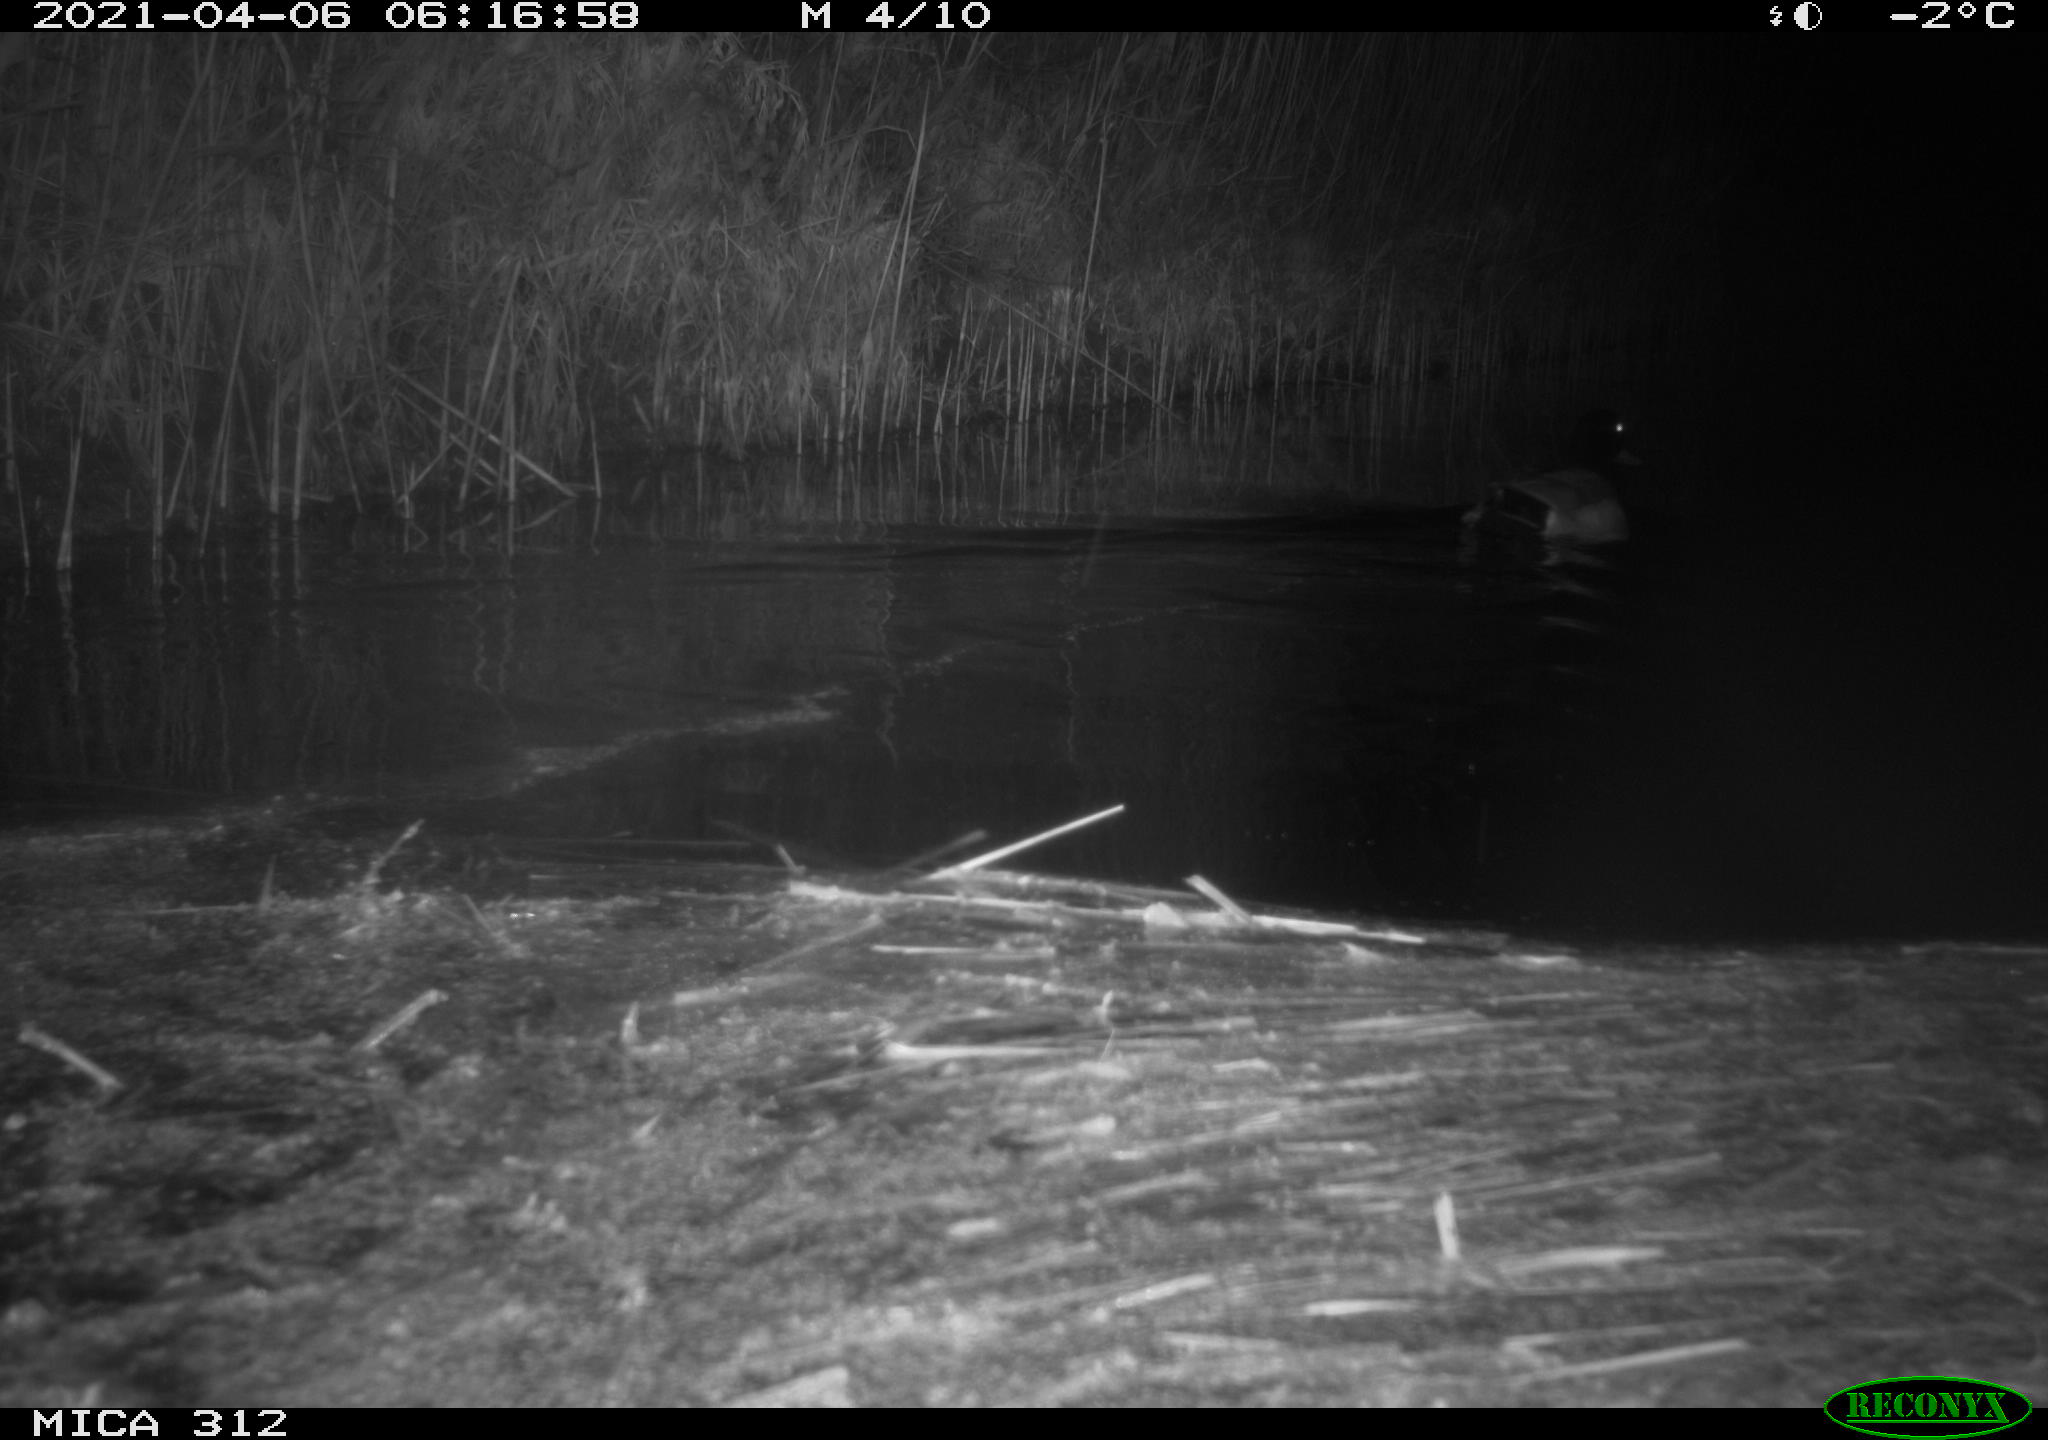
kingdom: Animalia
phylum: Chordata
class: Aves
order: Anseriformes
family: Anatidae
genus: Anas
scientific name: Anas platyrhynchos
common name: Mallard
